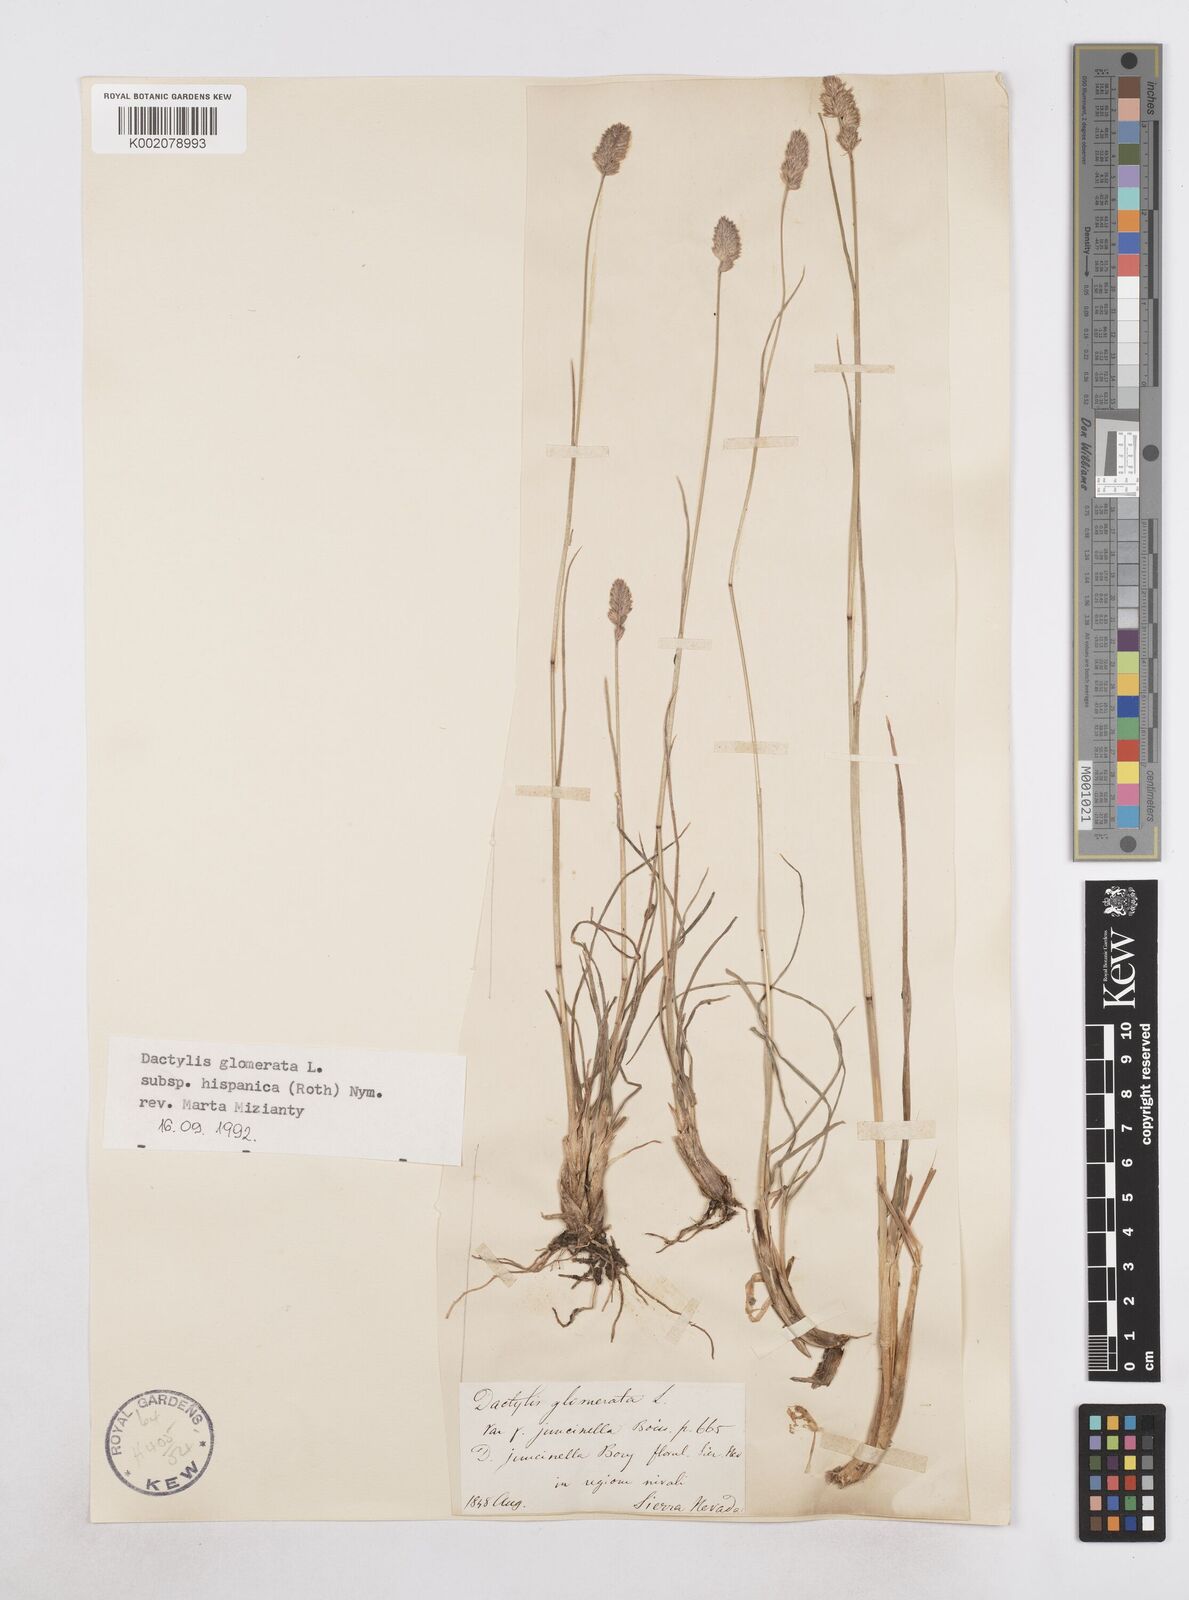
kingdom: Plantae
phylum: Tracheophyta
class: Liliopsida
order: Poales
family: Poaceae
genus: Dactylis
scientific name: Dactylis glomerata
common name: Orchardgrass
